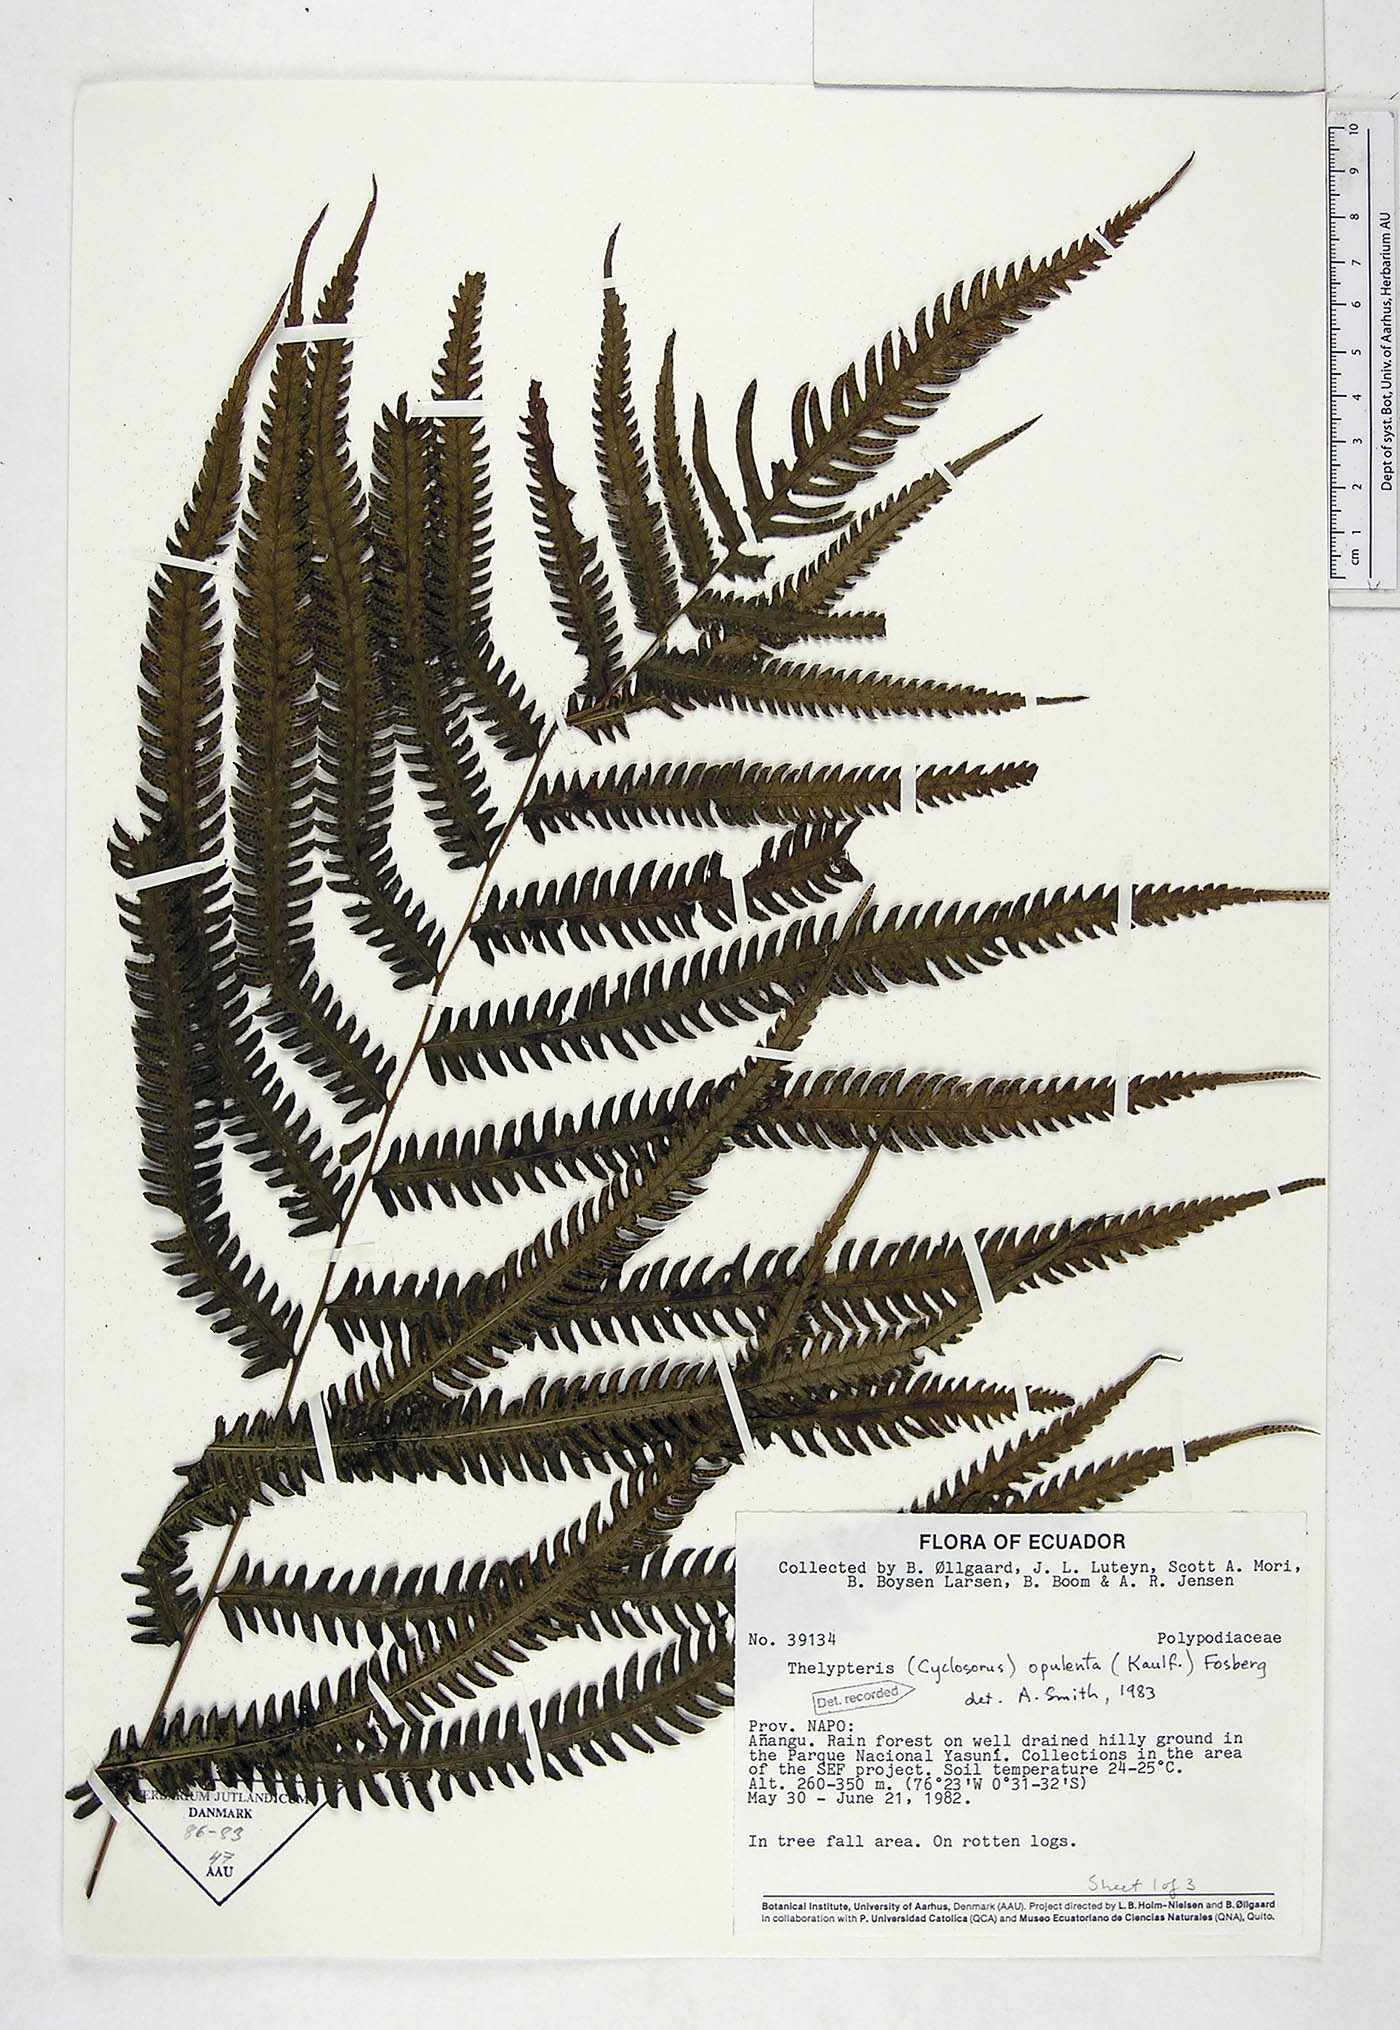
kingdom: Plantae
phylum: Tracheophyta
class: Polypodiopsida
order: Polypodiales
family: Thelypteridaceae
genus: Amblovenatum
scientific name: Amblovenatum opulentum
